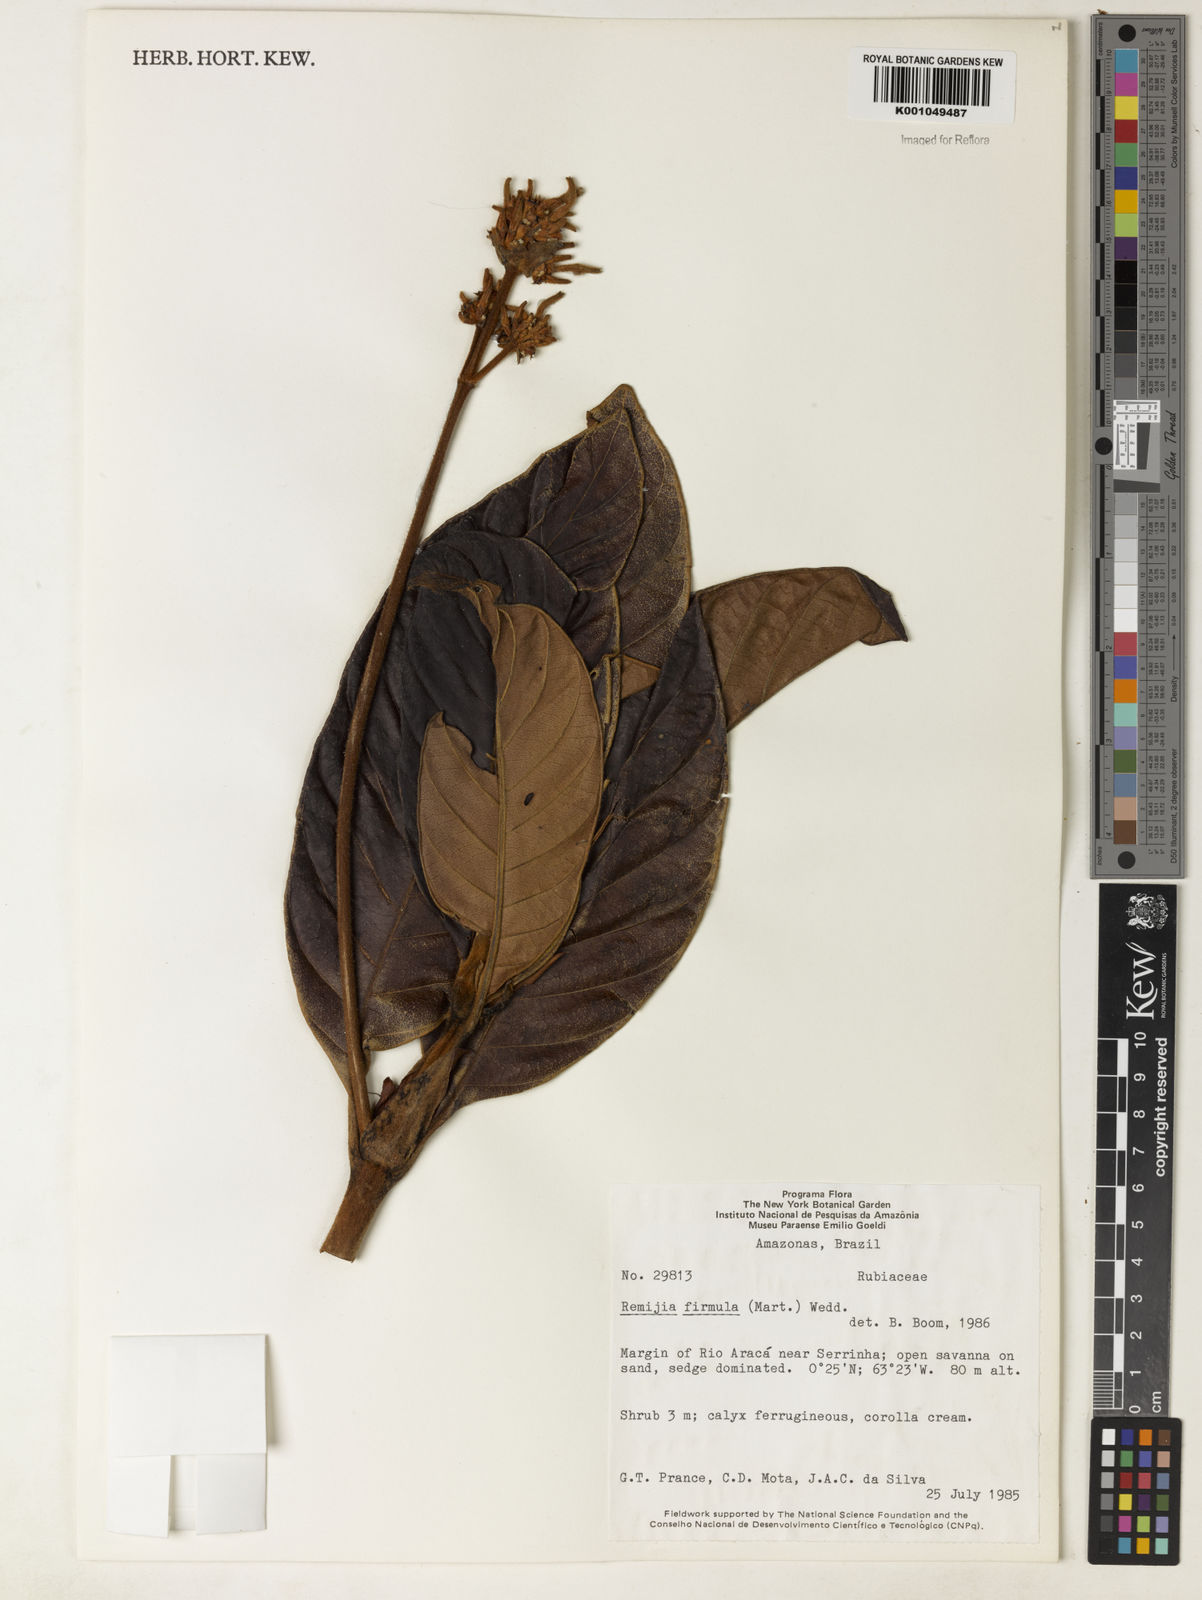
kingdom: Plantae
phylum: Tracheophyta
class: Magnoliopsida
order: Gentianales
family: Rubiaceae
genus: Remijia
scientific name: Remijia firmula
